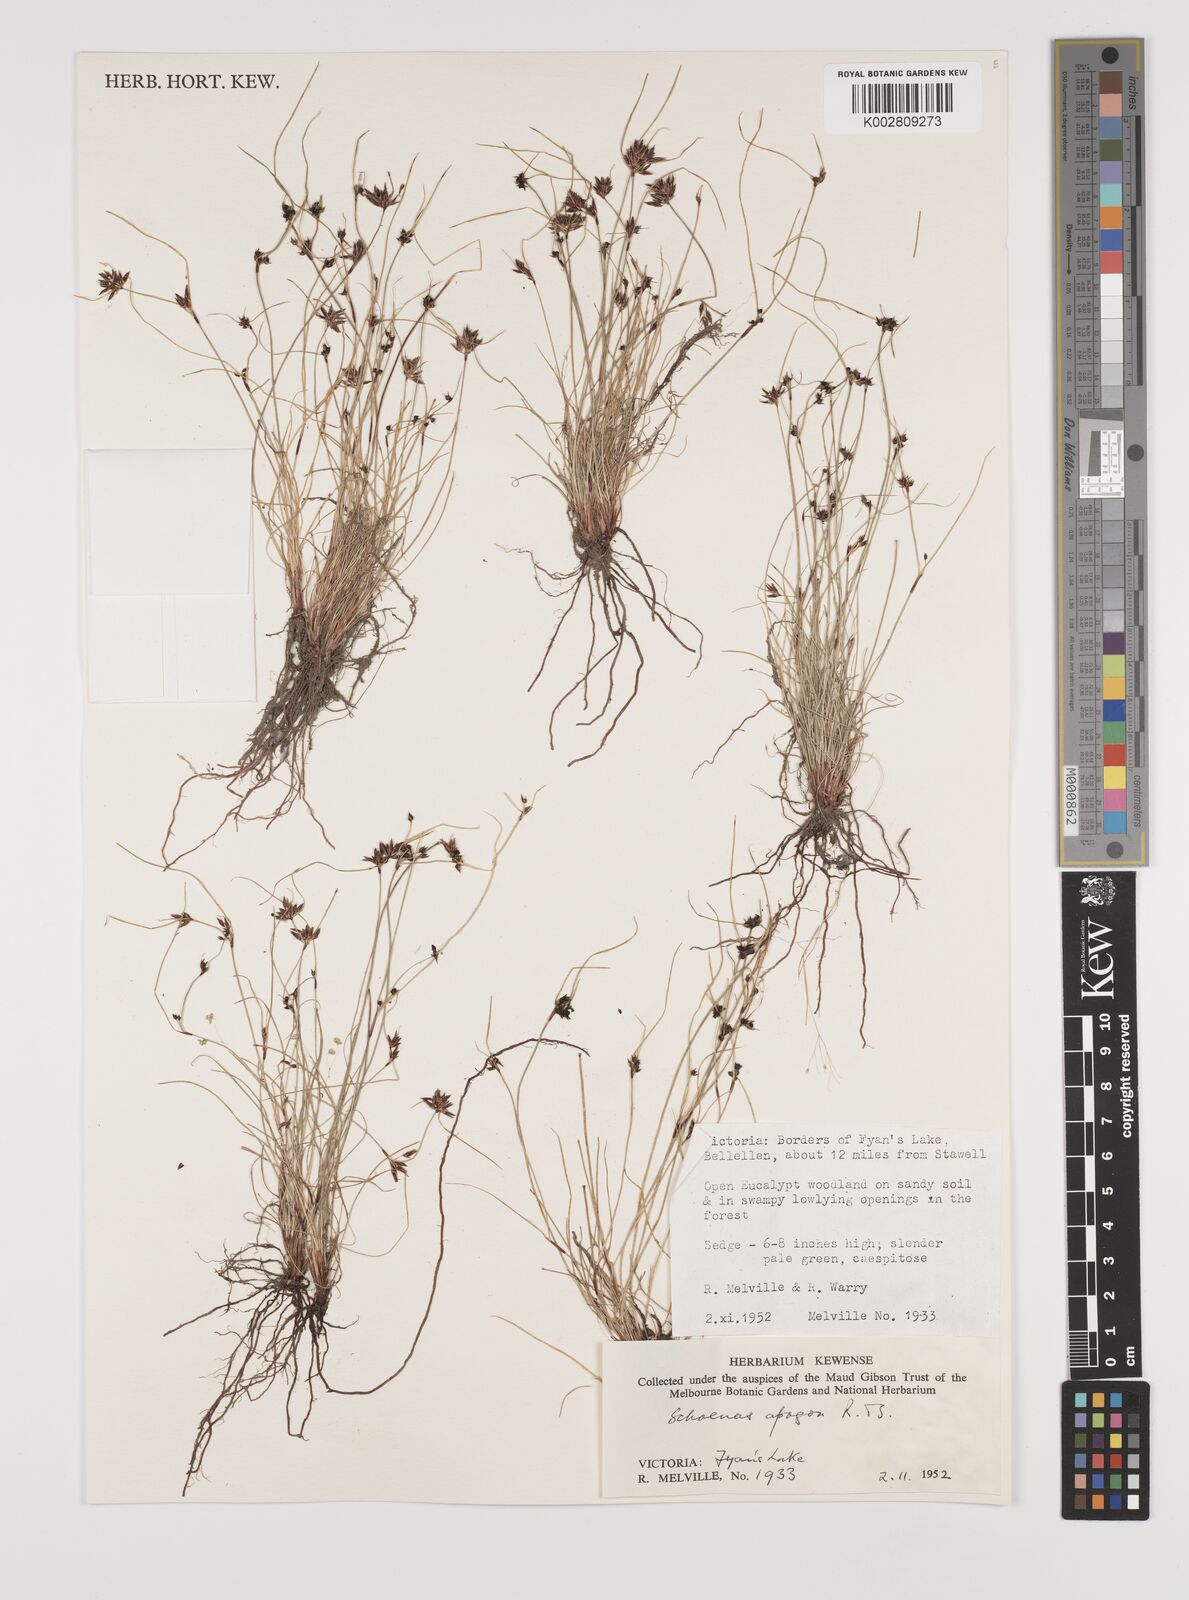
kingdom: Plantae
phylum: Tracheophyta
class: Liliopsida
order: Poales
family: Cyperaceae
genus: Schoenus
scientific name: Schoenus apogon
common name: Smooth bogrush
